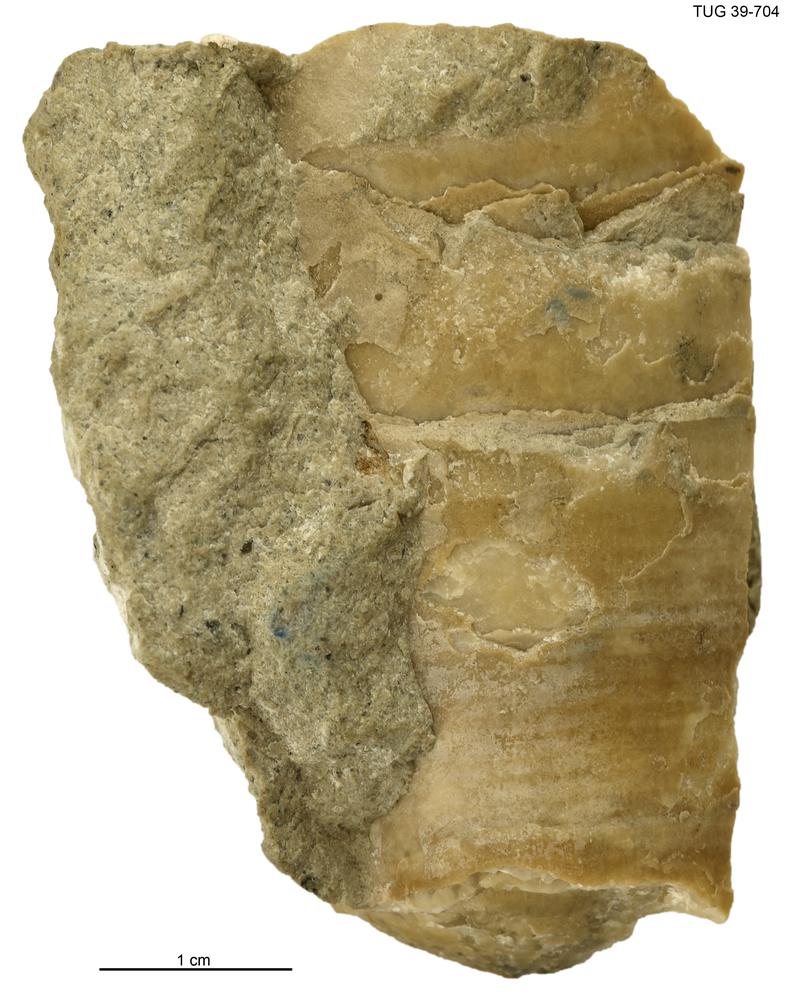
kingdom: Animalia
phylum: Mollusca
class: Cephalopoda
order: Orthocerida
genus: Ancistroceras
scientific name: Ancistroceras
